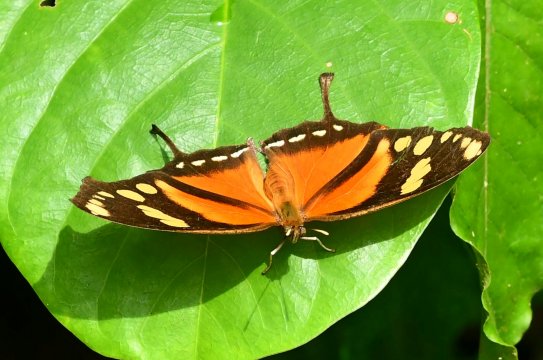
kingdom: Animalia
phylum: Arthropoda
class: Insecta
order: Lepidoptera
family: Nymphalidae
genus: Consul
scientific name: Consul fabius
